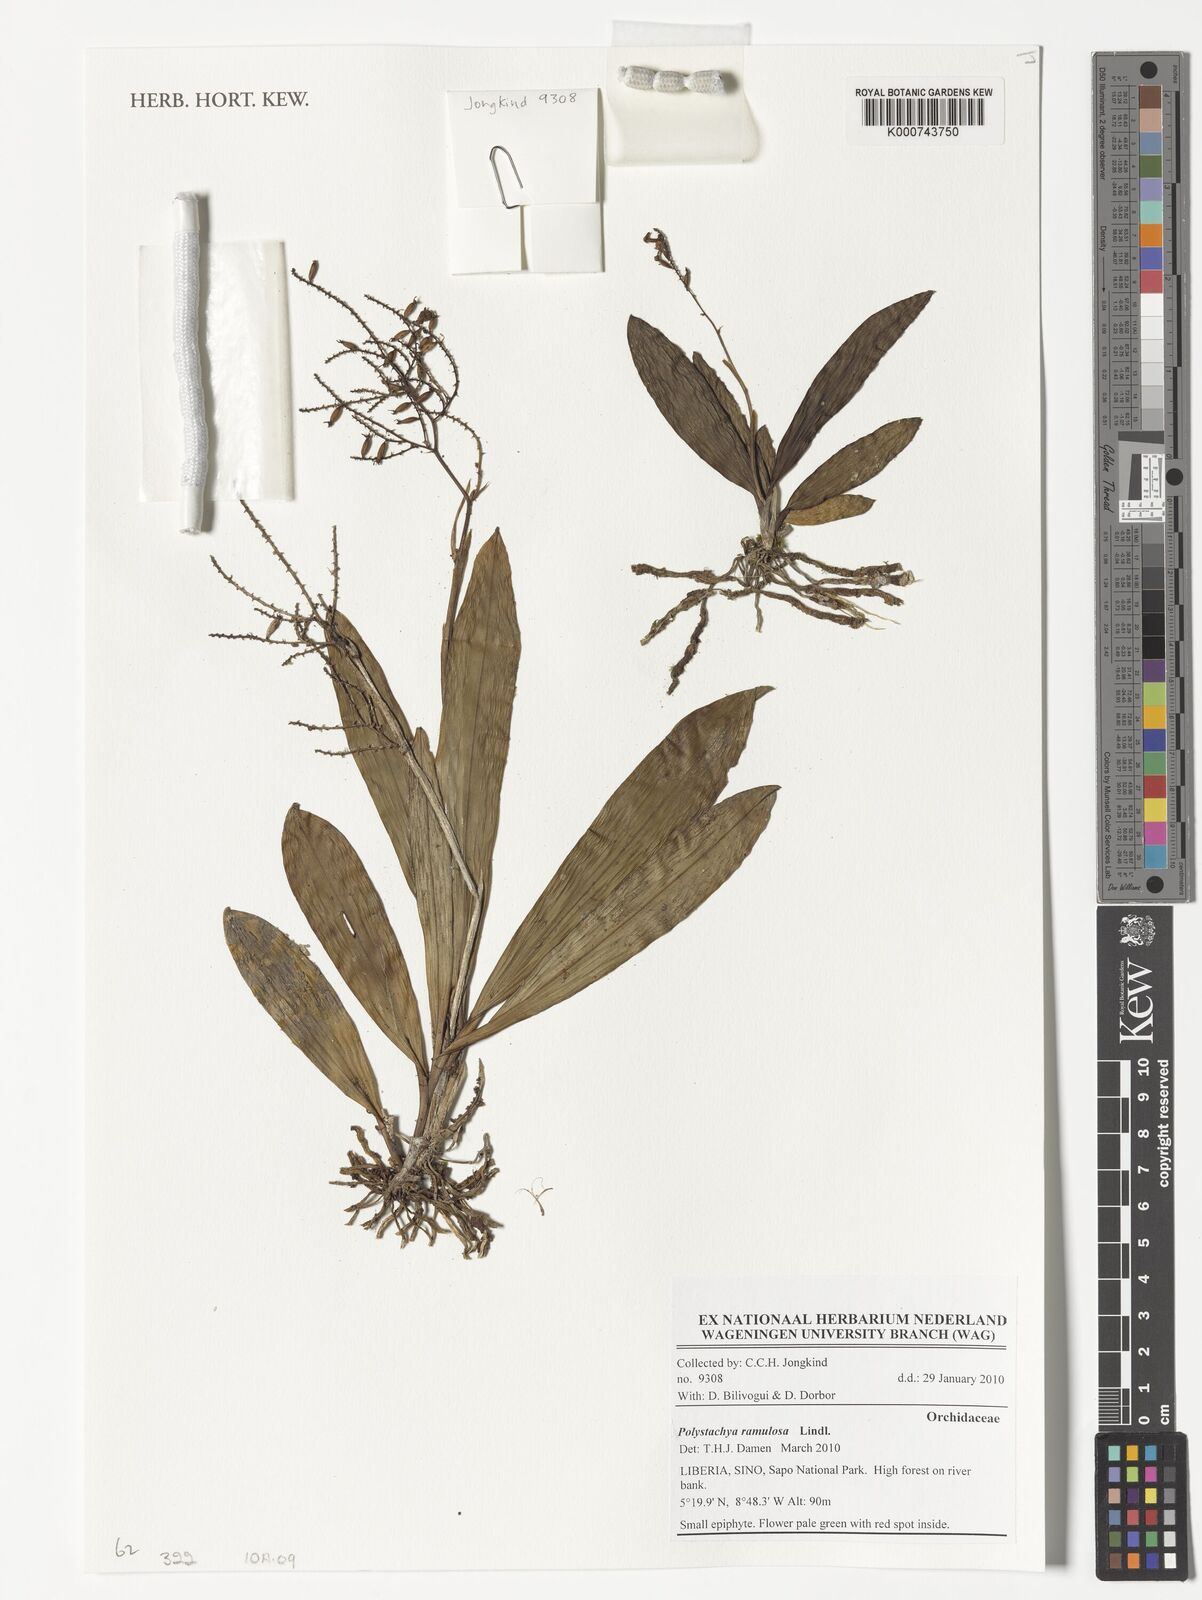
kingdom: Plantae
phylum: Tracheophyta
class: Liliopsida
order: Asparagales
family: Orchidaceae
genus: Polystachya
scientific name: Polystachya ramulosa
